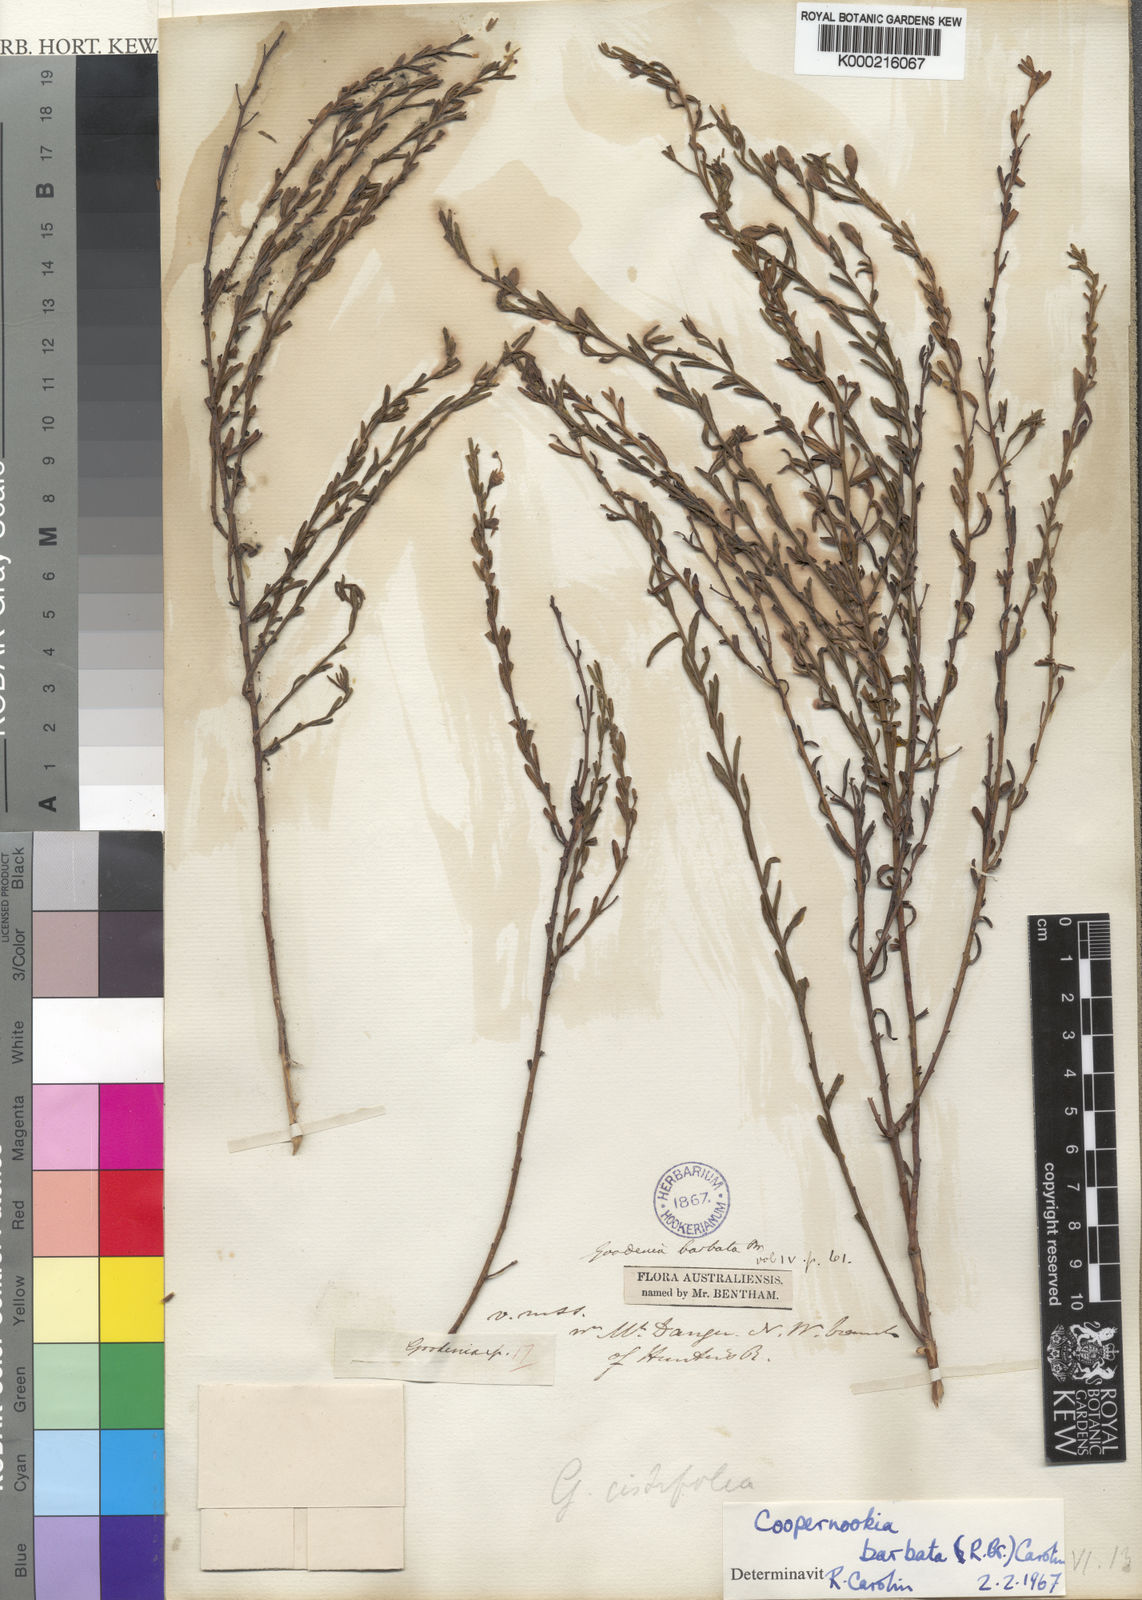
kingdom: Plantae
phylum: Tracheophyta
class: Magnoliopsida
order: Asterales
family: Goodeniaceae
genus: Goodenia
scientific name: Goodenia barbata
